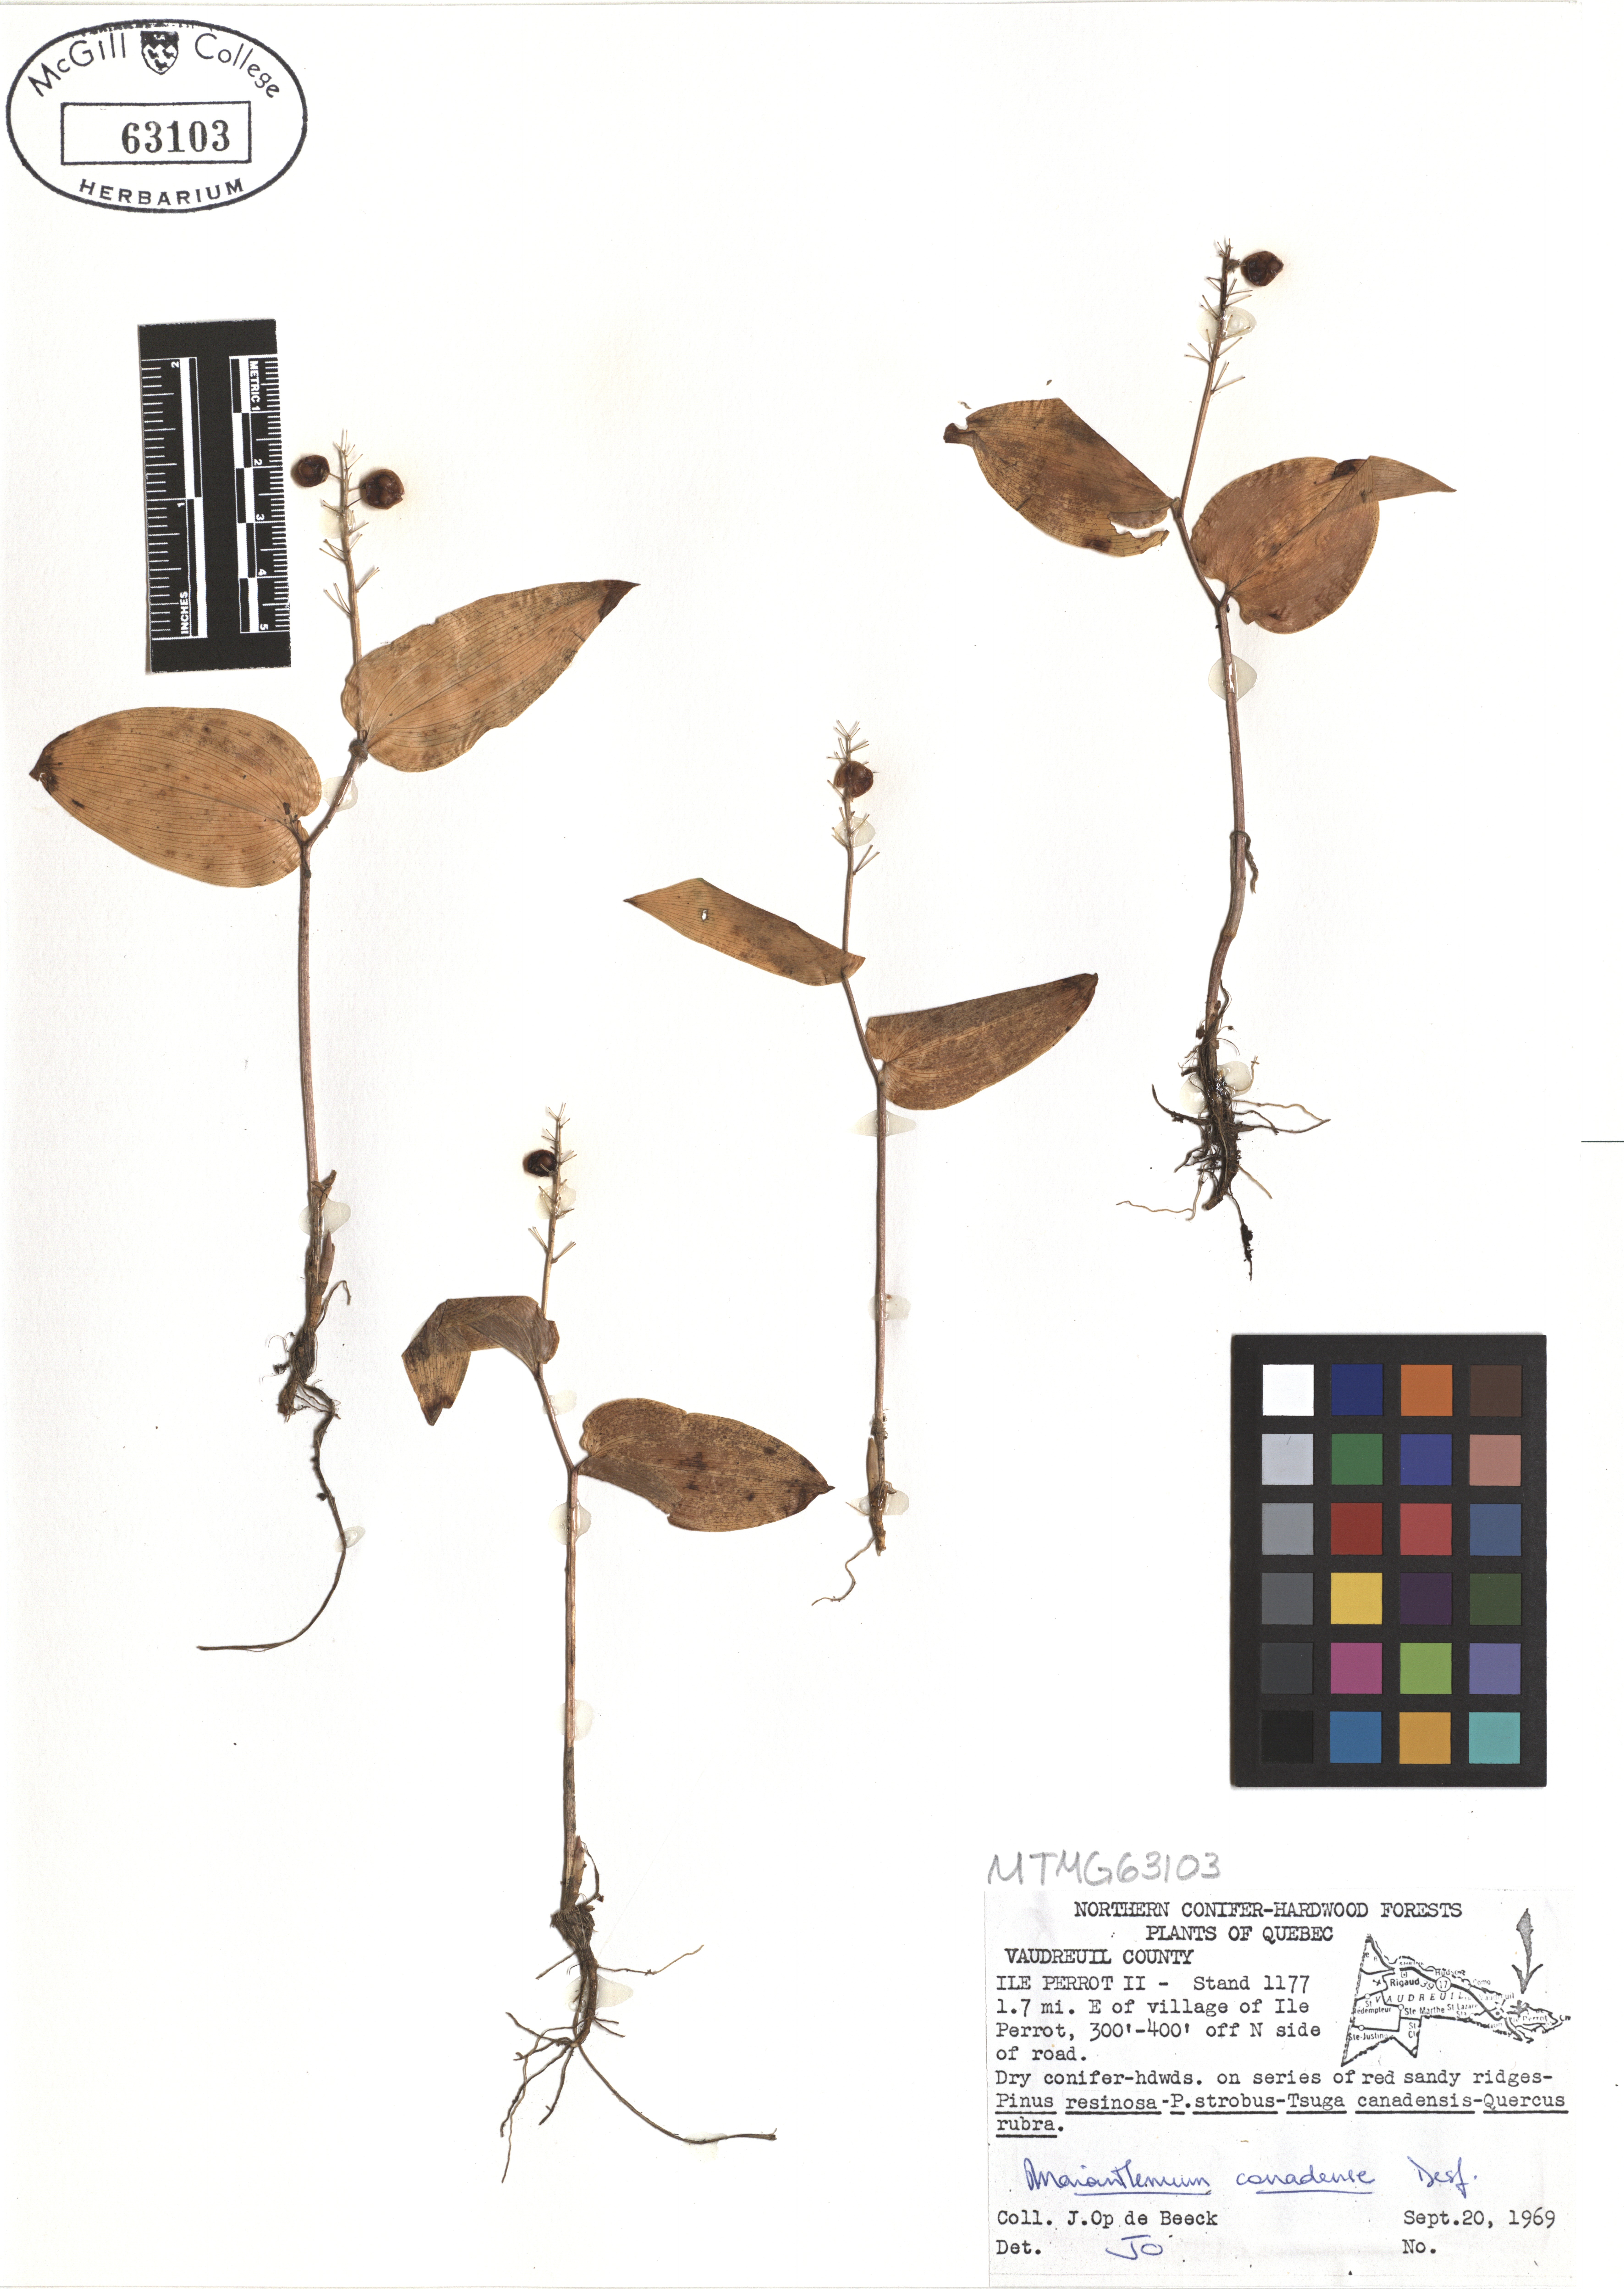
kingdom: Plantae
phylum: Tracheophyta
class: Liliopsida
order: Asparagales
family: Asparagaceae
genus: Maianthemum
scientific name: Maianthemum canadense
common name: False lily-of-the-valley
